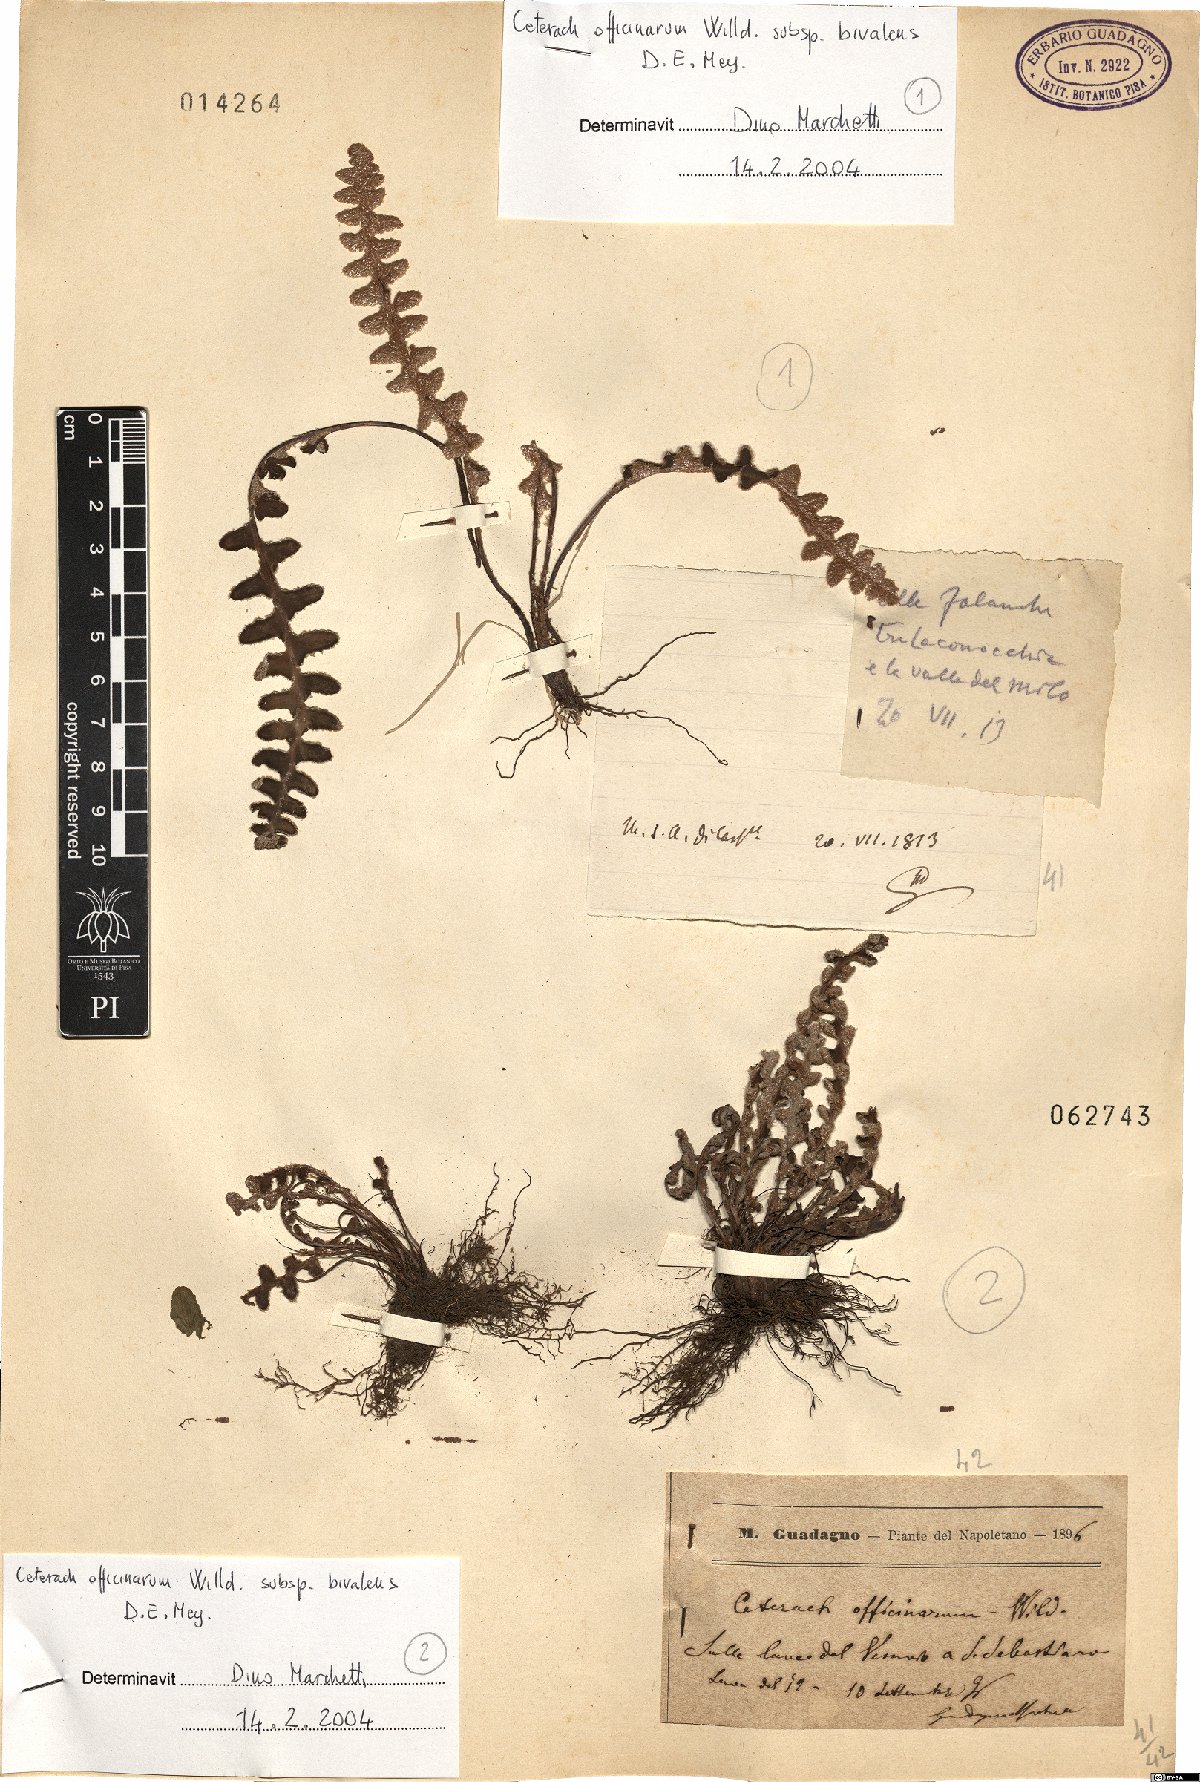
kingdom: Plantae
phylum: Tracheophyta
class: Polypodiopsida
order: Polypodiales
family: Aspleniaceae
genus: Asplenium
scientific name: Asplenium ceterach
